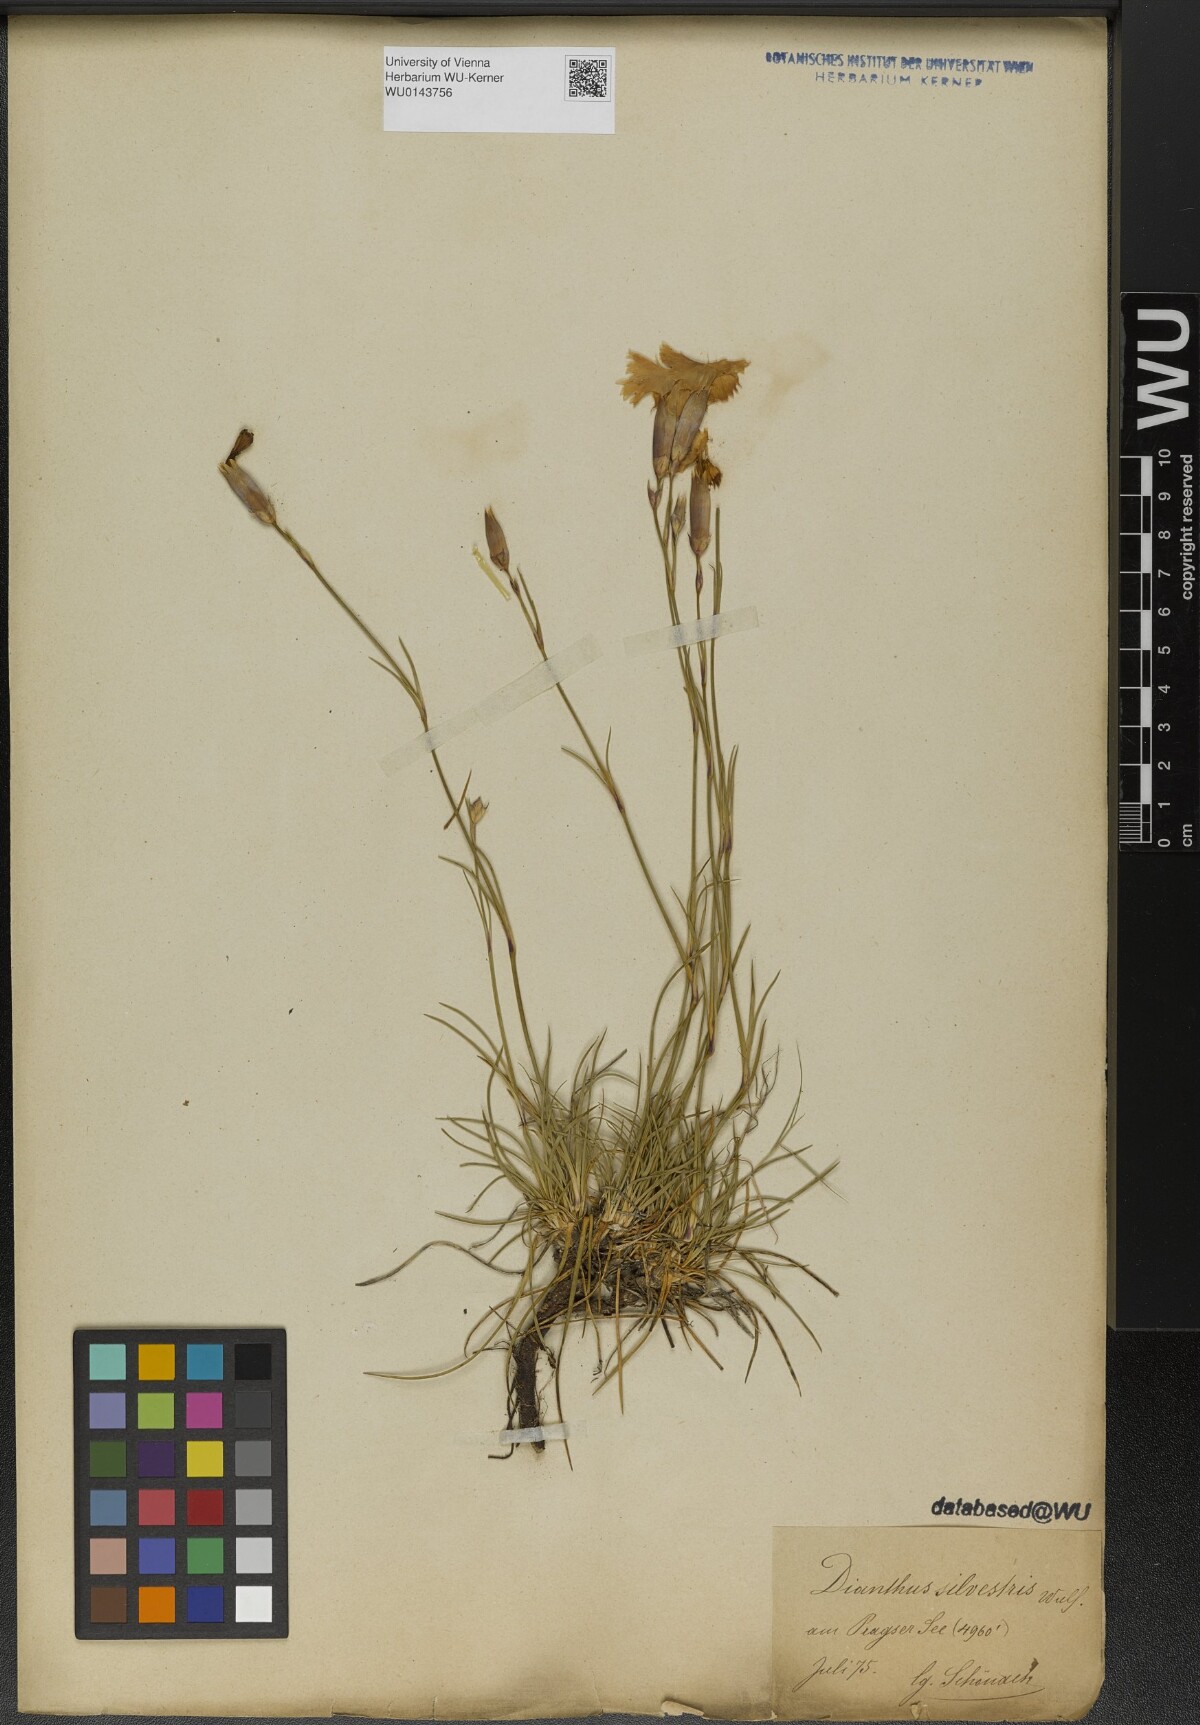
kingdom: Plantae
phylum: Tracheophyta
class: Magnoliopsida
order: Caryophyllales
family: Caryophyllaceae
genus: Dianthus
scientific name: Dianthus sylvestris
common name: Wood pink
